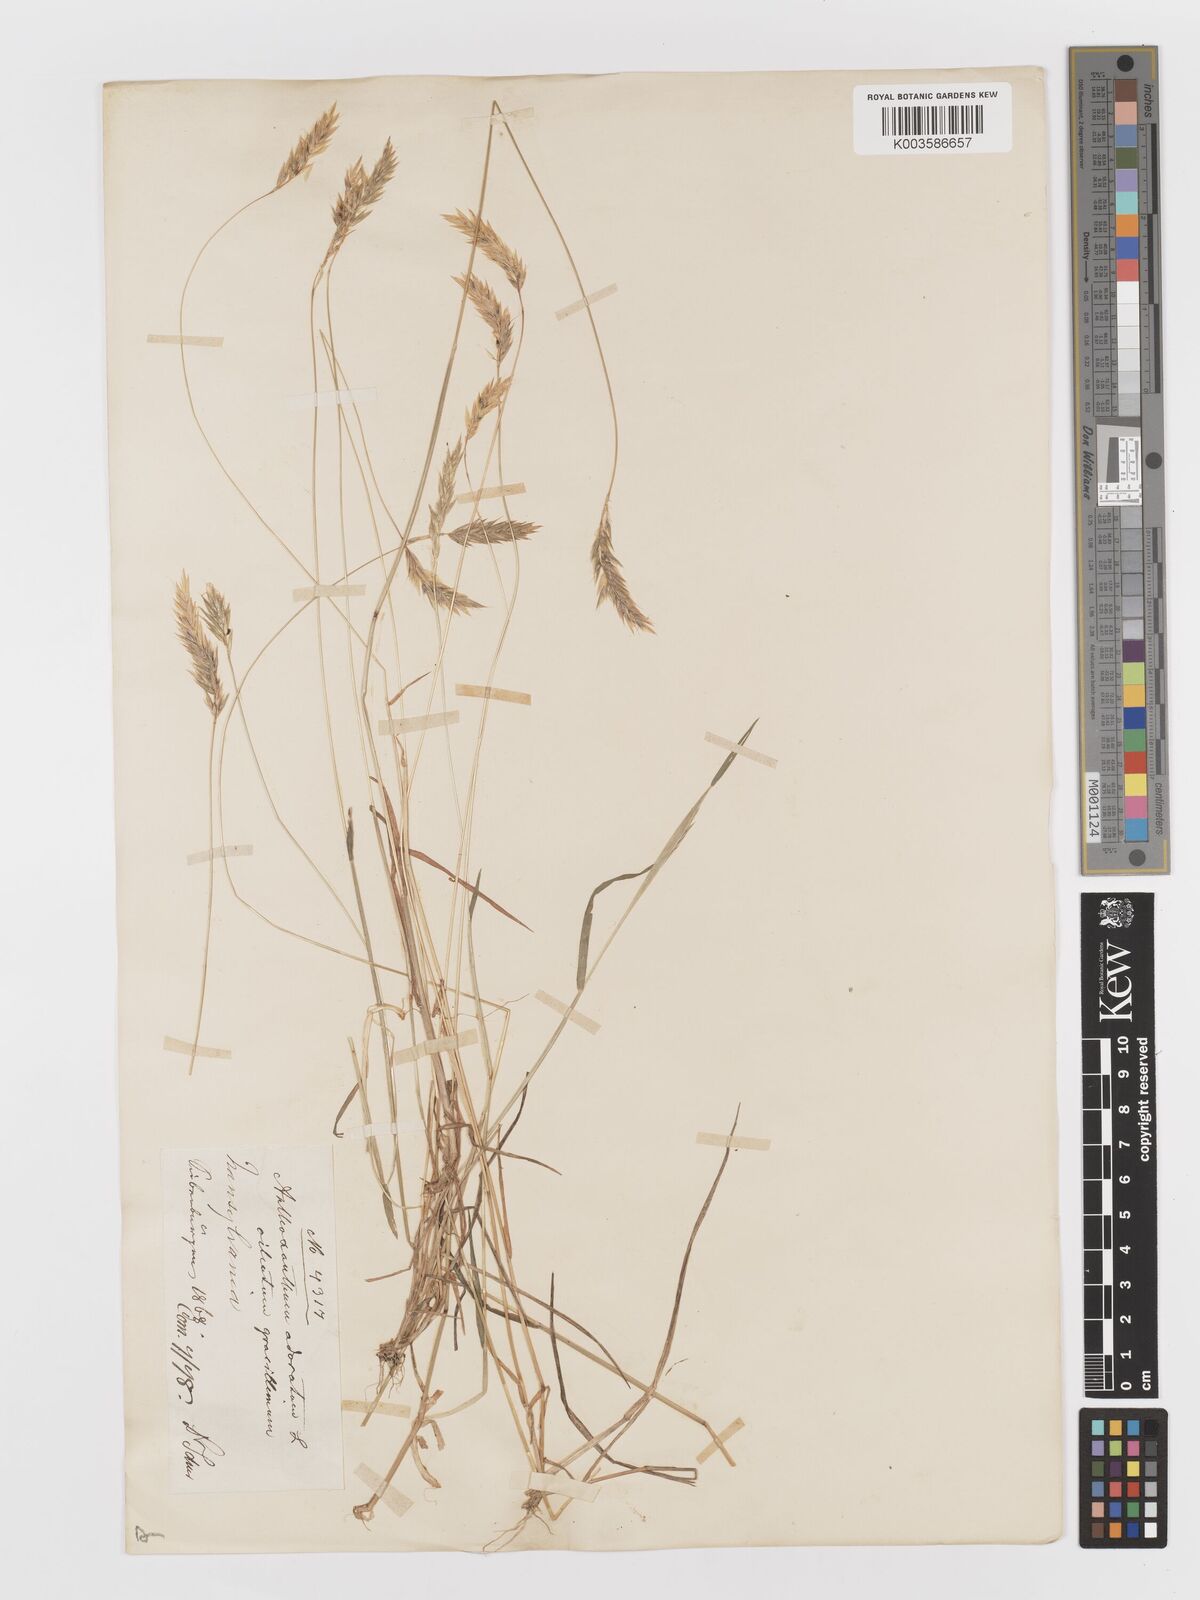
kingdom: Plantae
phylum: Tracheophyta
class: Liliopsida
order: Poales
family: Poaceae
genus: Anthoxanthum
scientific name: Anthoxanthum odoratum
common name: Sweet vernalgrass
